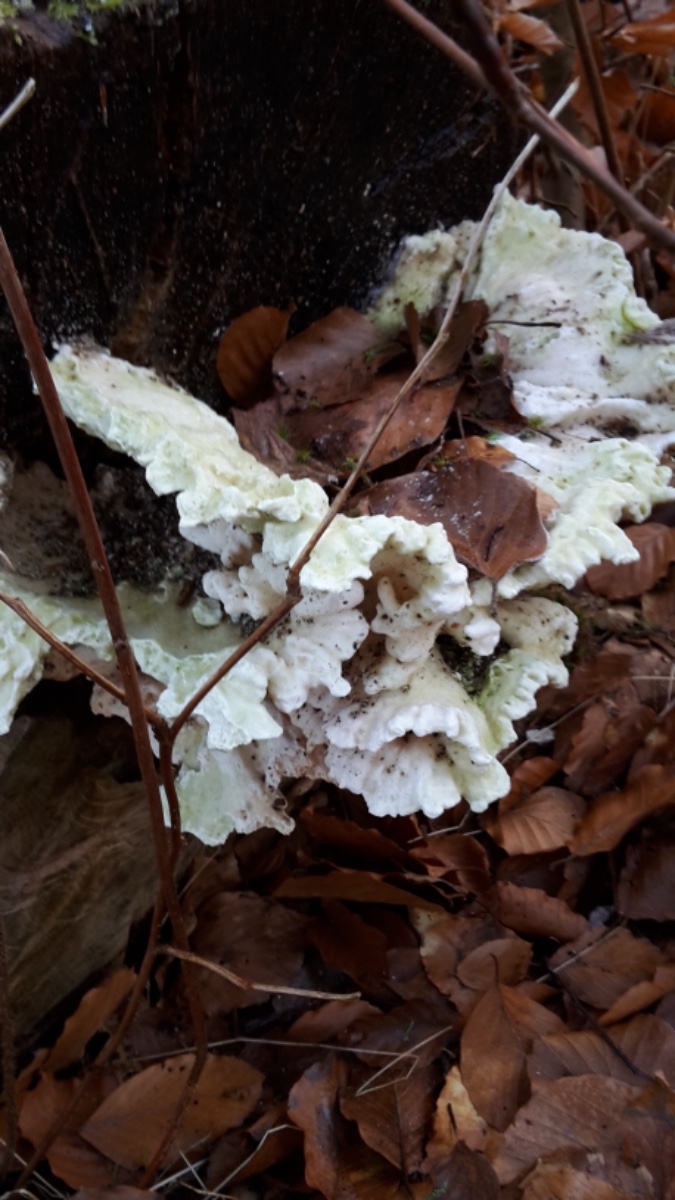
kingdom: Fungi
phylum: Basidiomycota
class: Agaricomycetes
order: Polyporales
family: Laetiporaceae
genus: Laetiporus
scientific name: Laetiporus sulphureus
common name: svovlporesvamp
